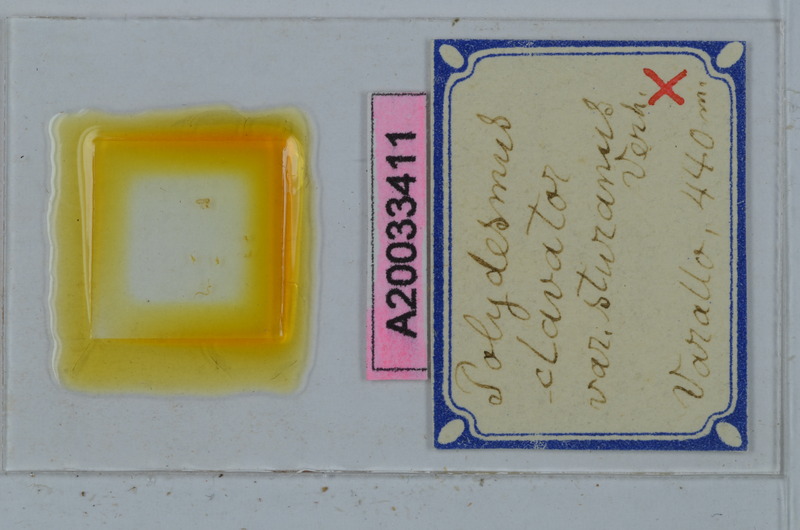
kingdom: Animalia
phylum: Arthropoda
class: Diplopoda
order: Polydesmida
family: Polydesmidae
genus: Polydesmus
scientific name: Polydesmus clavator
